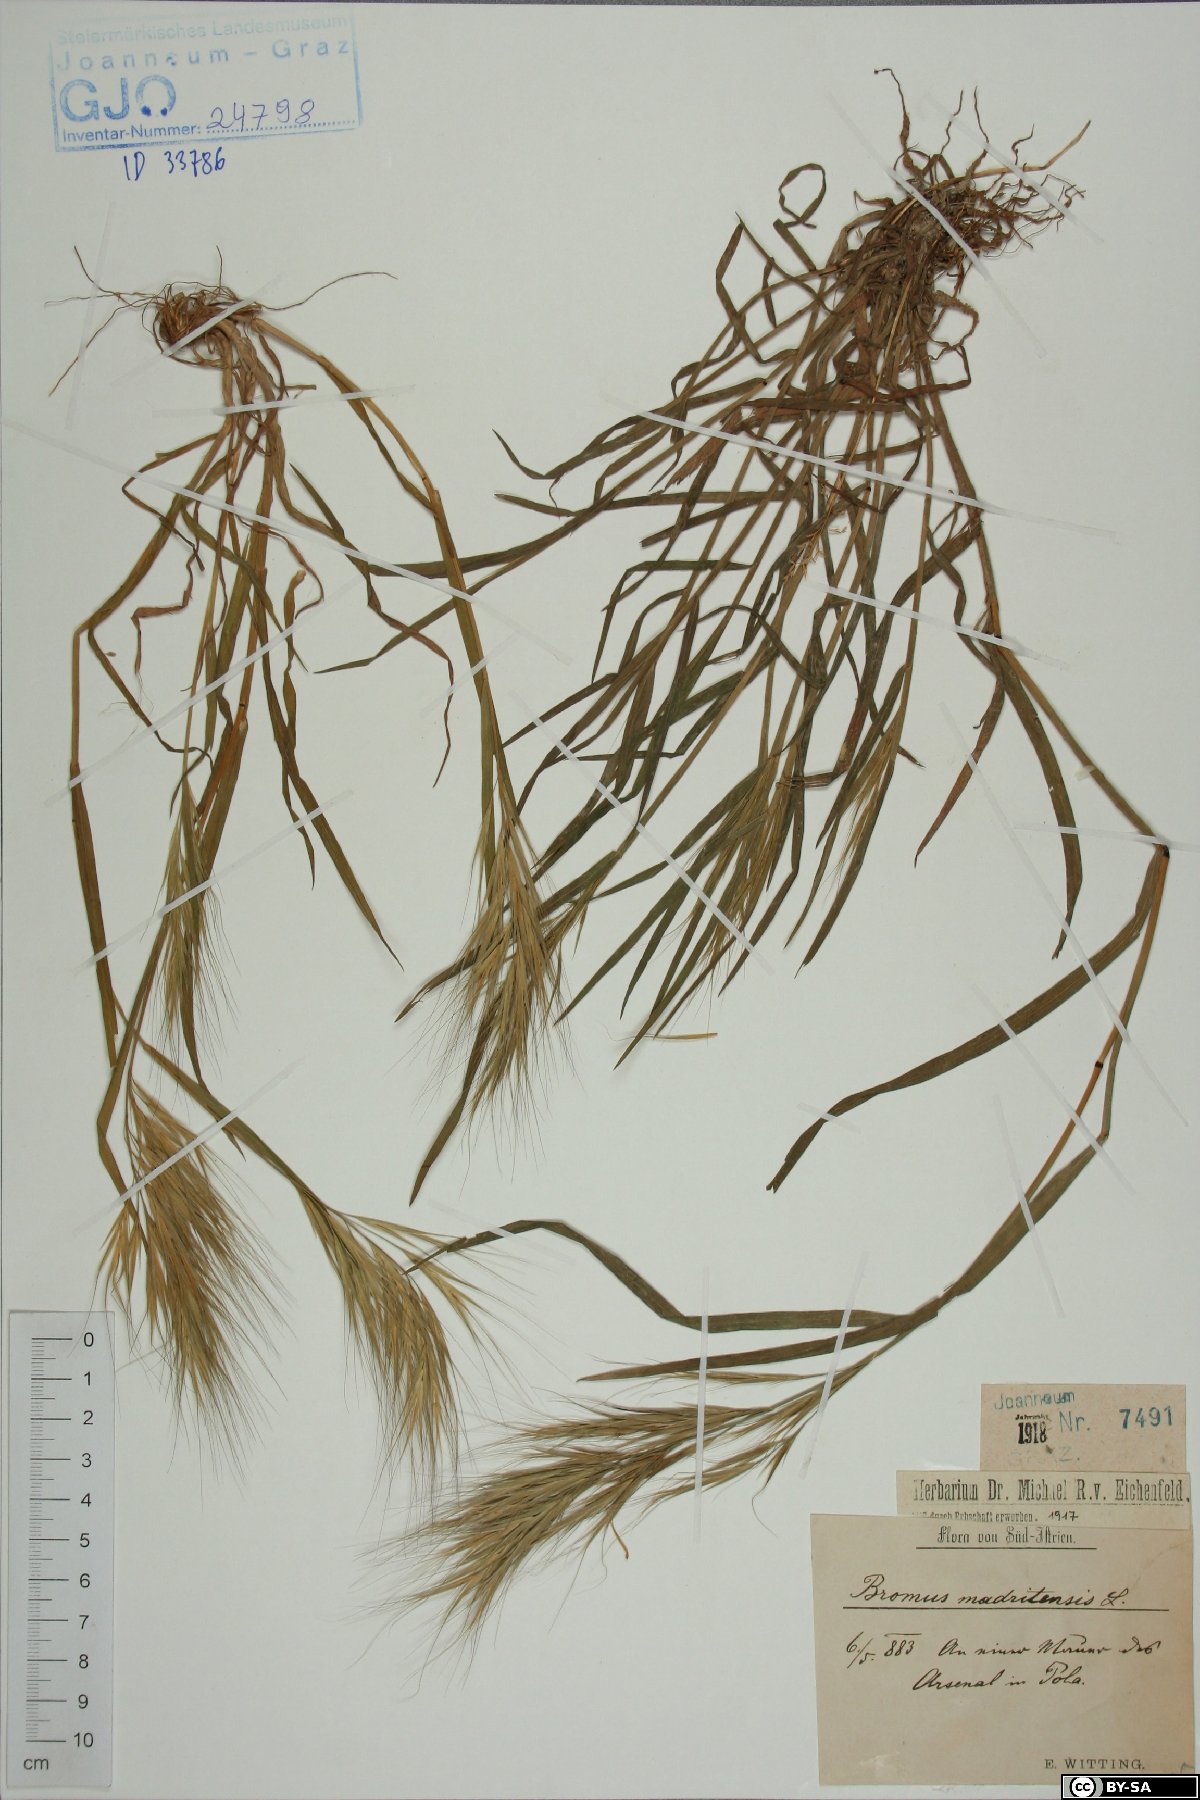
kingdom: Plantae
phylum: Tracheophyta
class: Liliopsida
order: Poales
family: Poaceae
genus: Bromus
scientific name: Bromus madritensis
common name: Compact brome
